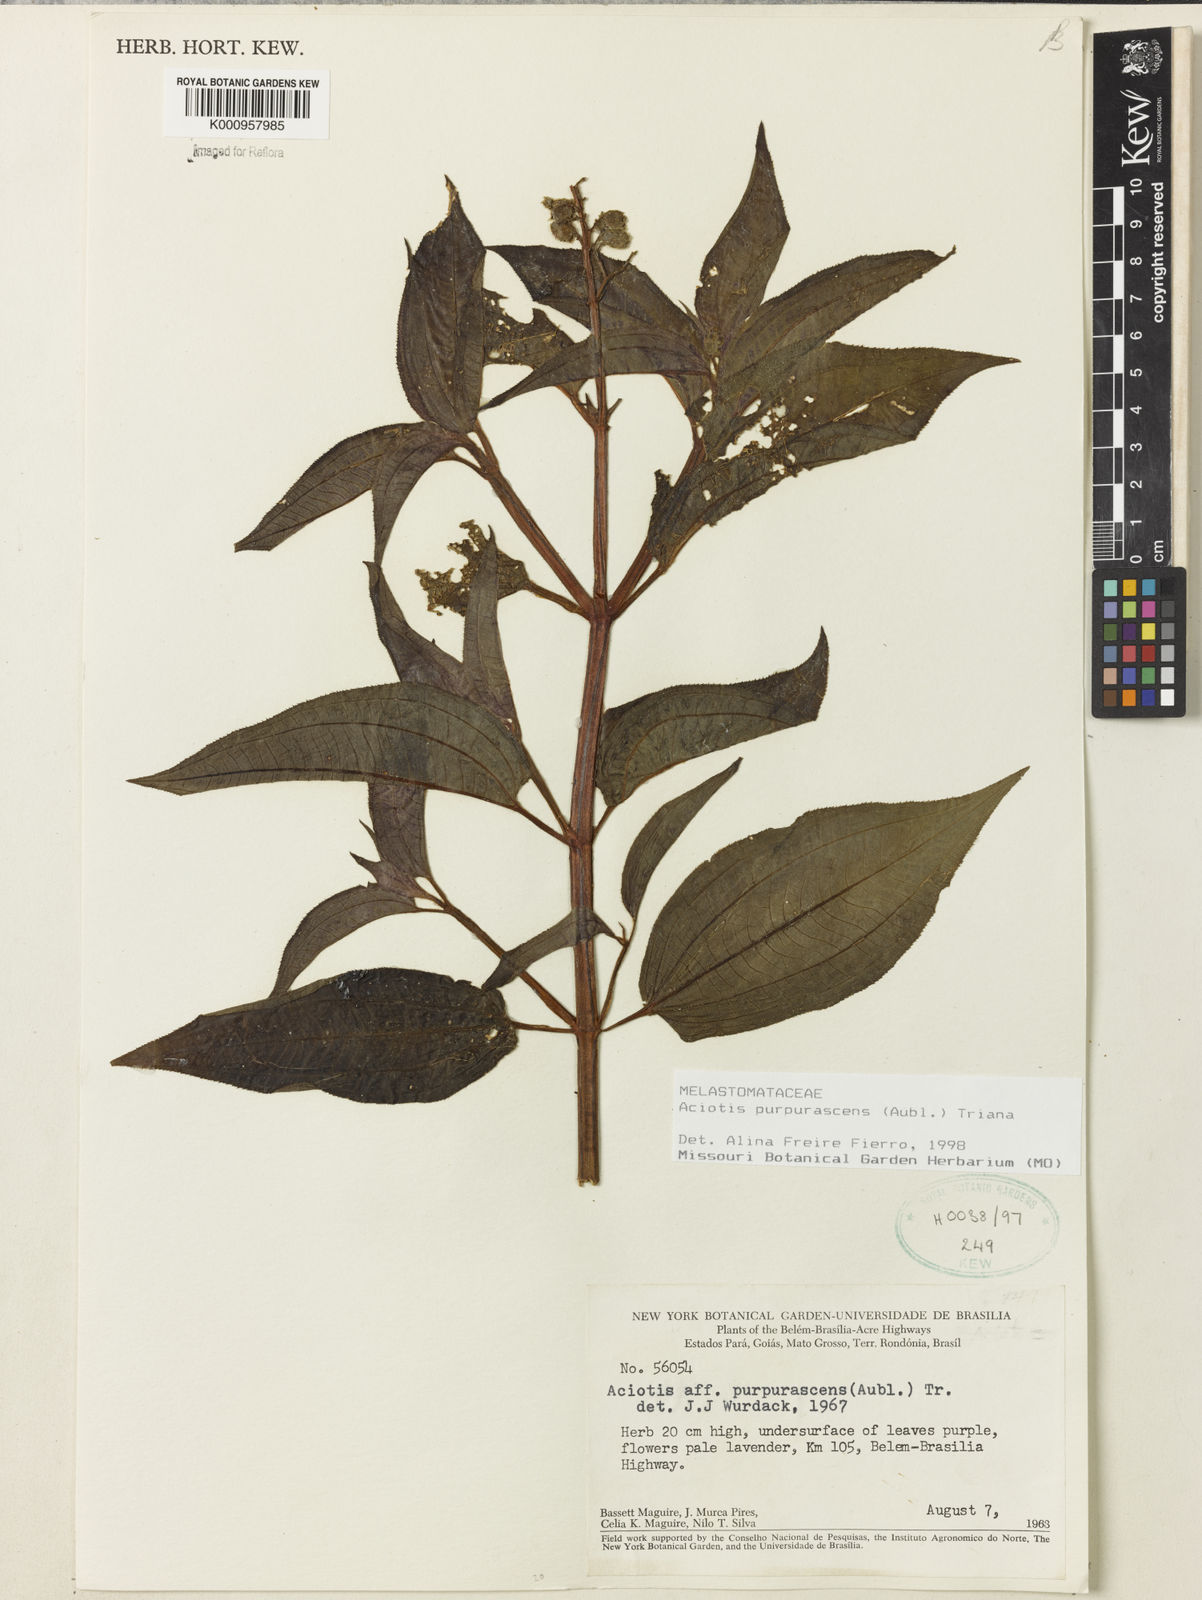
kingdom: Plantae
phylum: Tracheophyta
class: Magnoliopsida
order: Myrtales
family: Melastomataceae
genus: Aciotis
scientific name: Aciotis purpurascens
